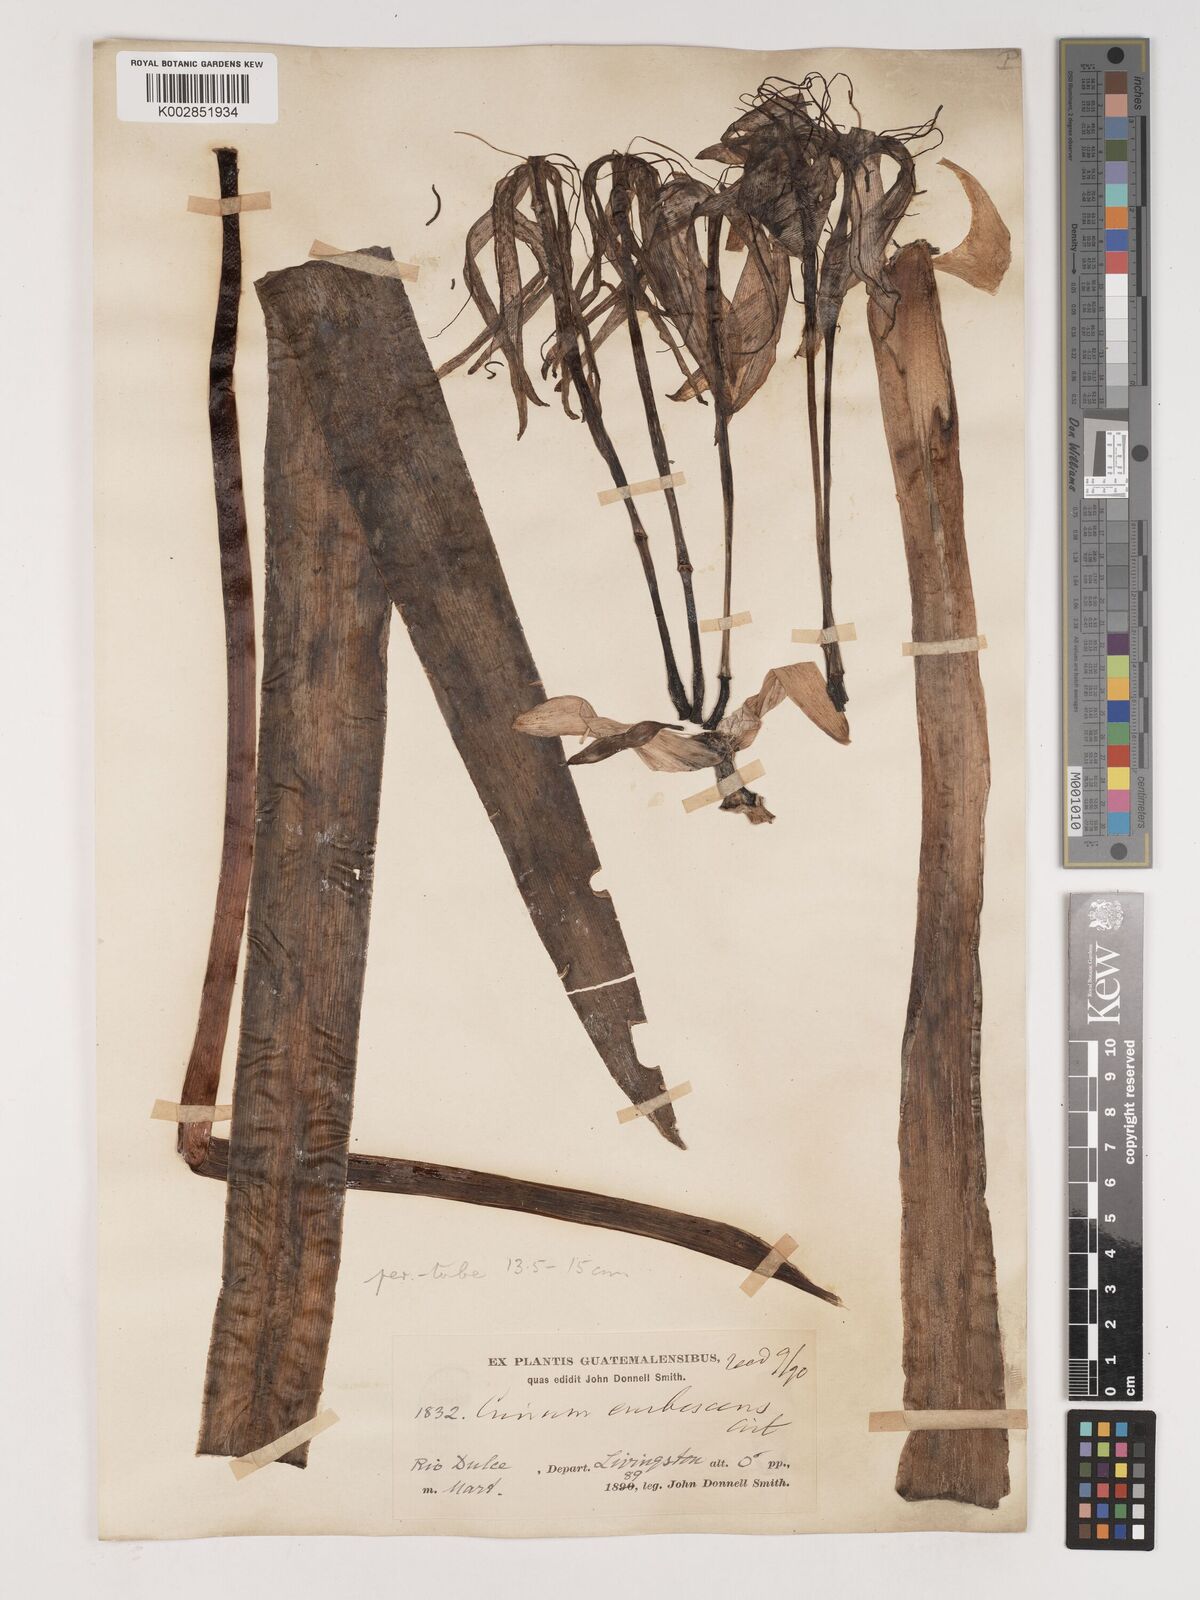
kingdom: Plantae
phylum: Tracheophyta
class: Liliopsida
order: Asparagales
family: Amaryllidaceae
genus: Crinum
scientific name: Crinum americanum
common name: Florida swamp-lily
